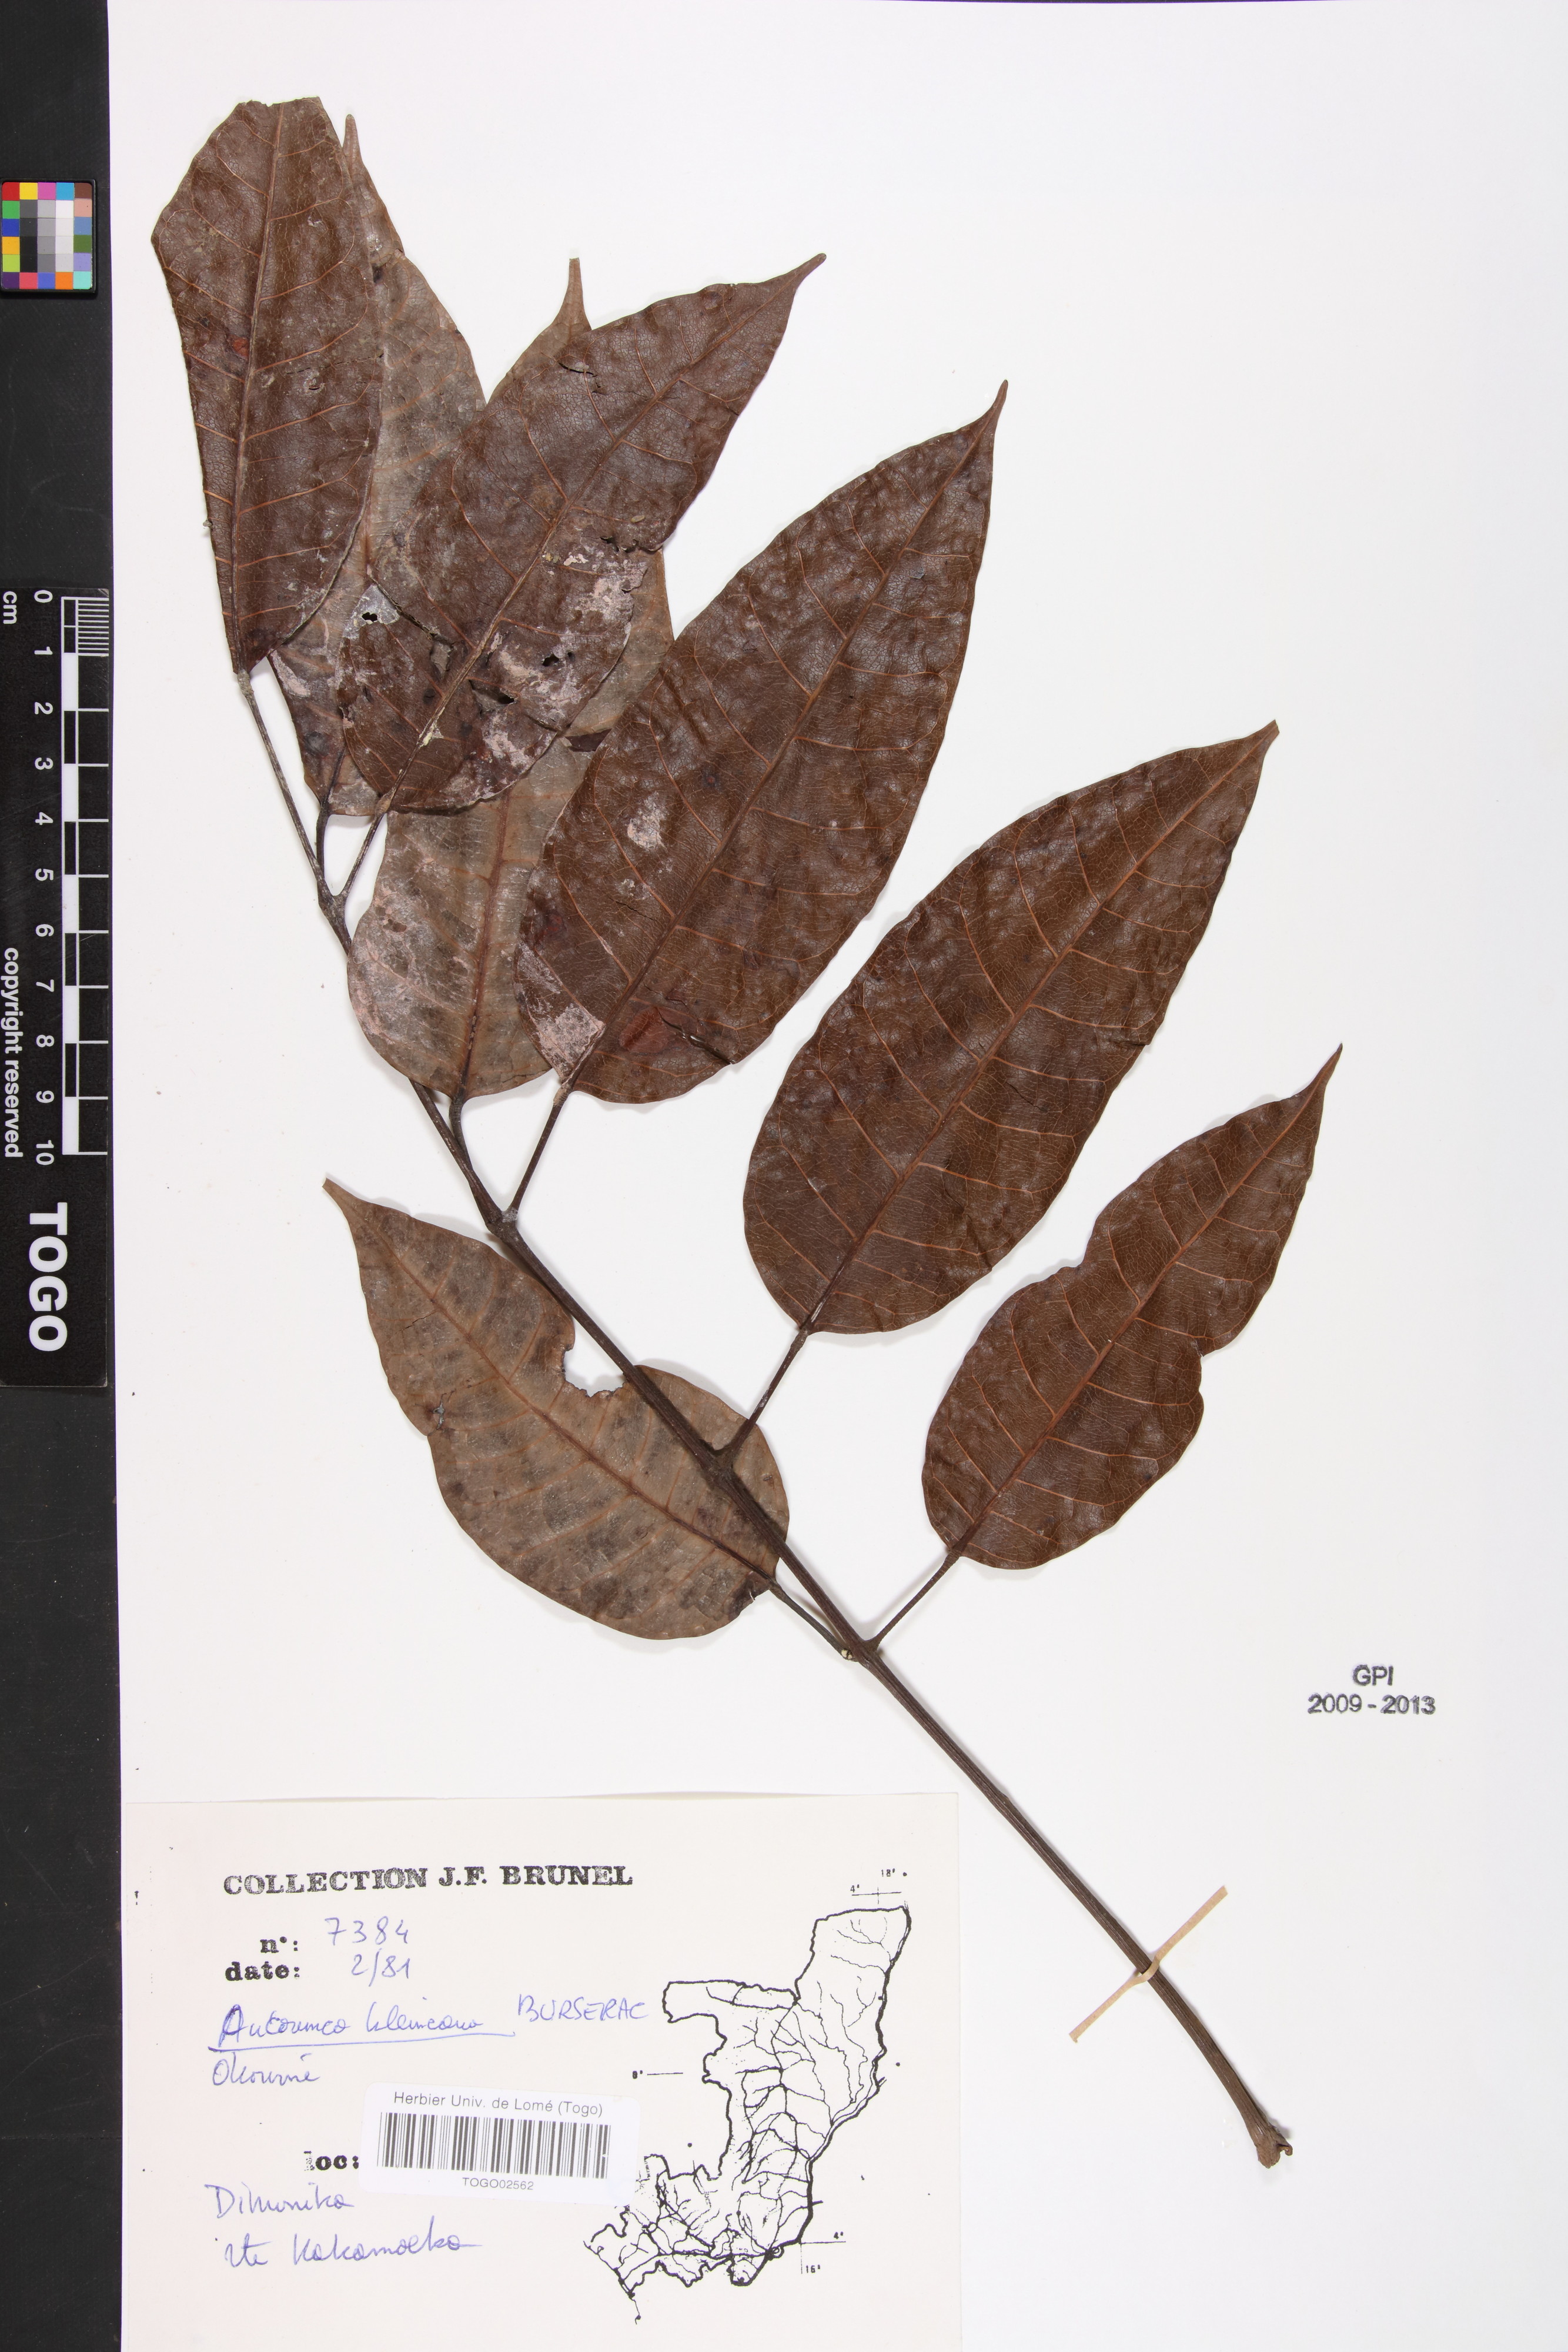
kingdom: Plantae
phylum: Tracheophyta
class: Magnoliopsida
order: Sapindales
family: Burseraceae
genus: Aucoumea
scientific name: Aucoumea klaineana
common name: Gabon-mahogany
